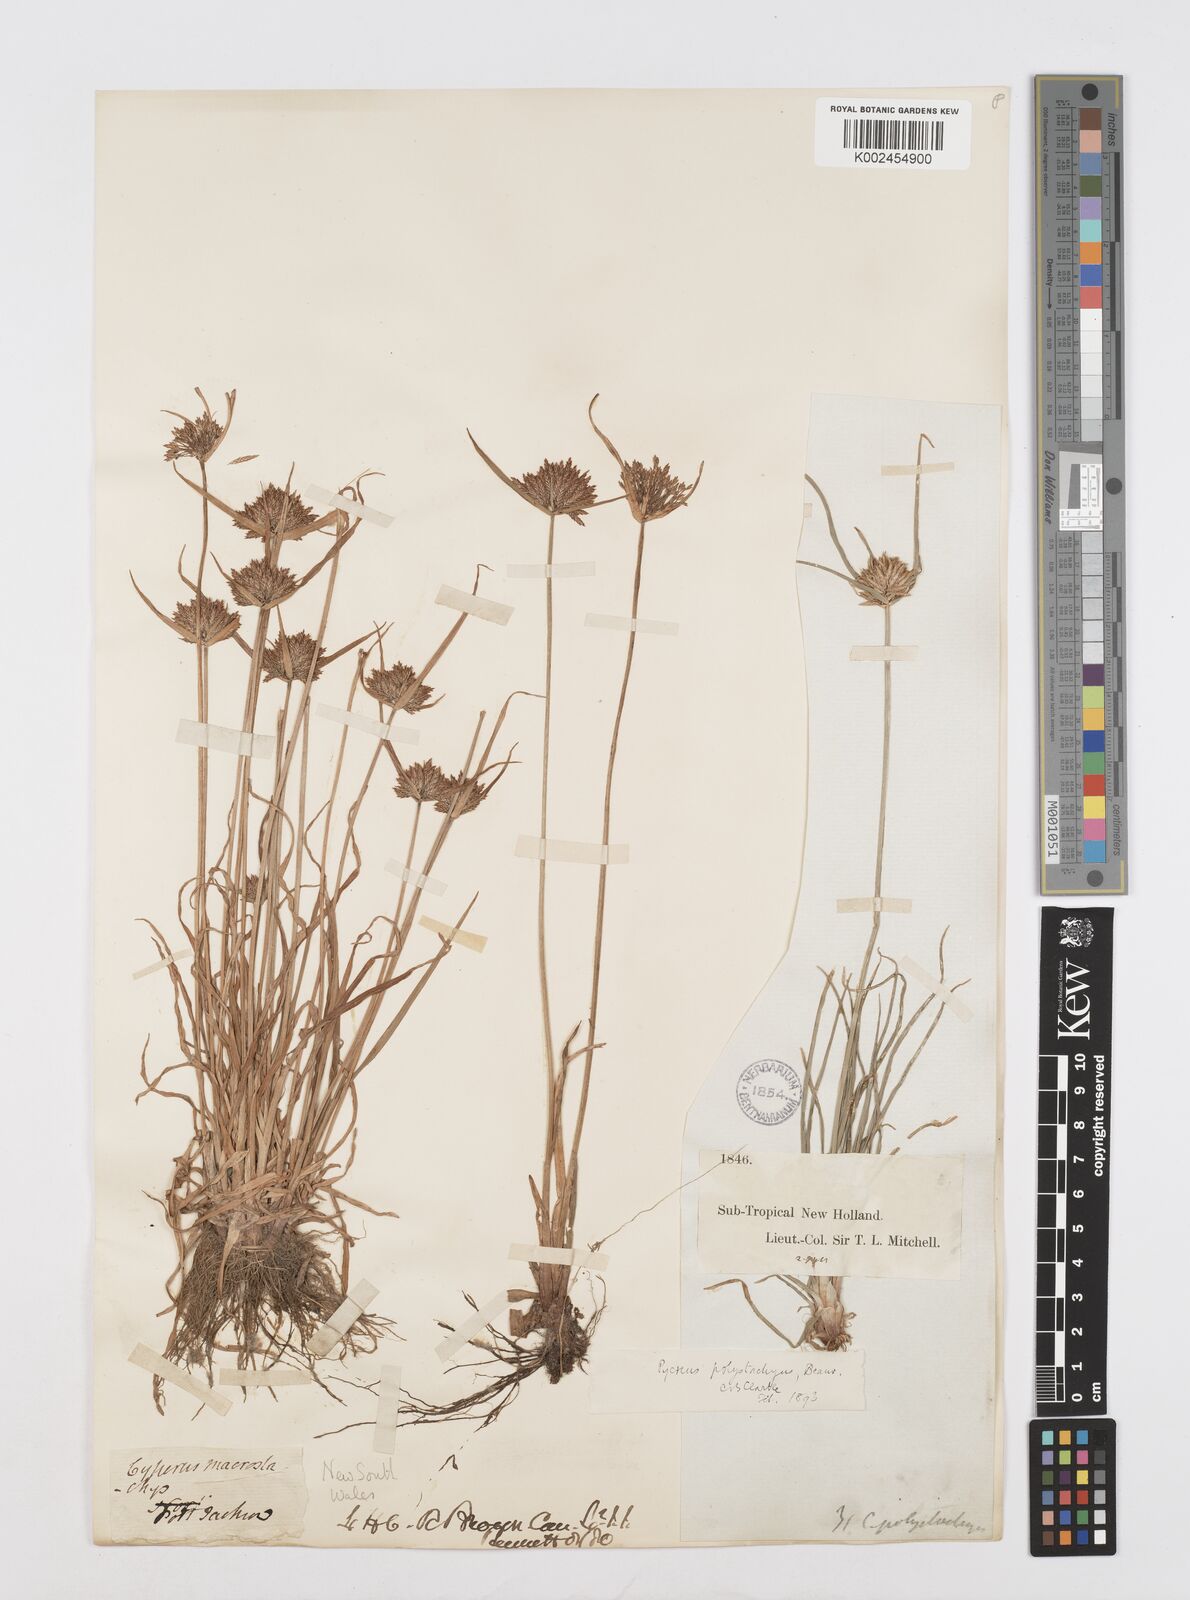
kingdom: Plantae
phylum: Tracheophyta
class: Liliopsida
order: Poales
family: Cyperaceae
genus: Cyperus
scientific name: Cyperus polystachyos
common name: Bunchy flat sedge
